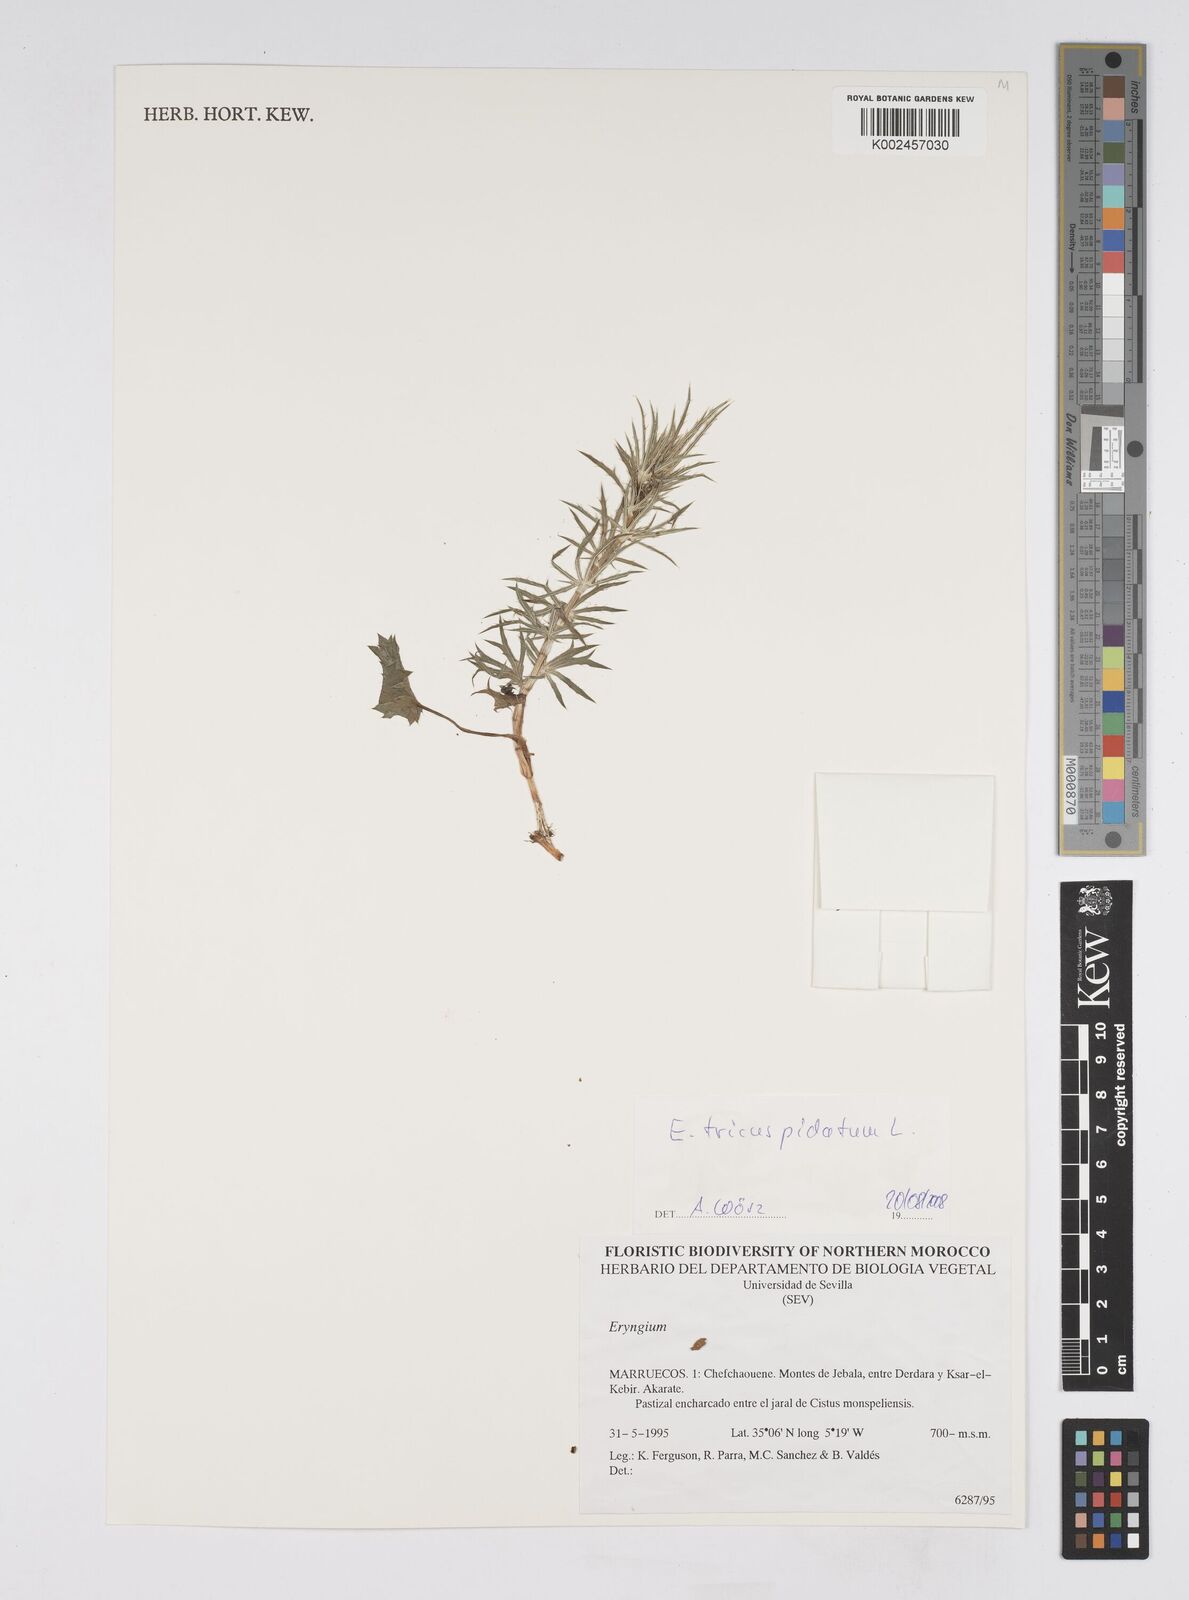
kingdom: Plantae
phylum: Tracheophyta
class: Magnoliopsida
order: Apiales
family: Apiaceae
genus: Eryngium
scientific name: Eryngium tricuspidatum
